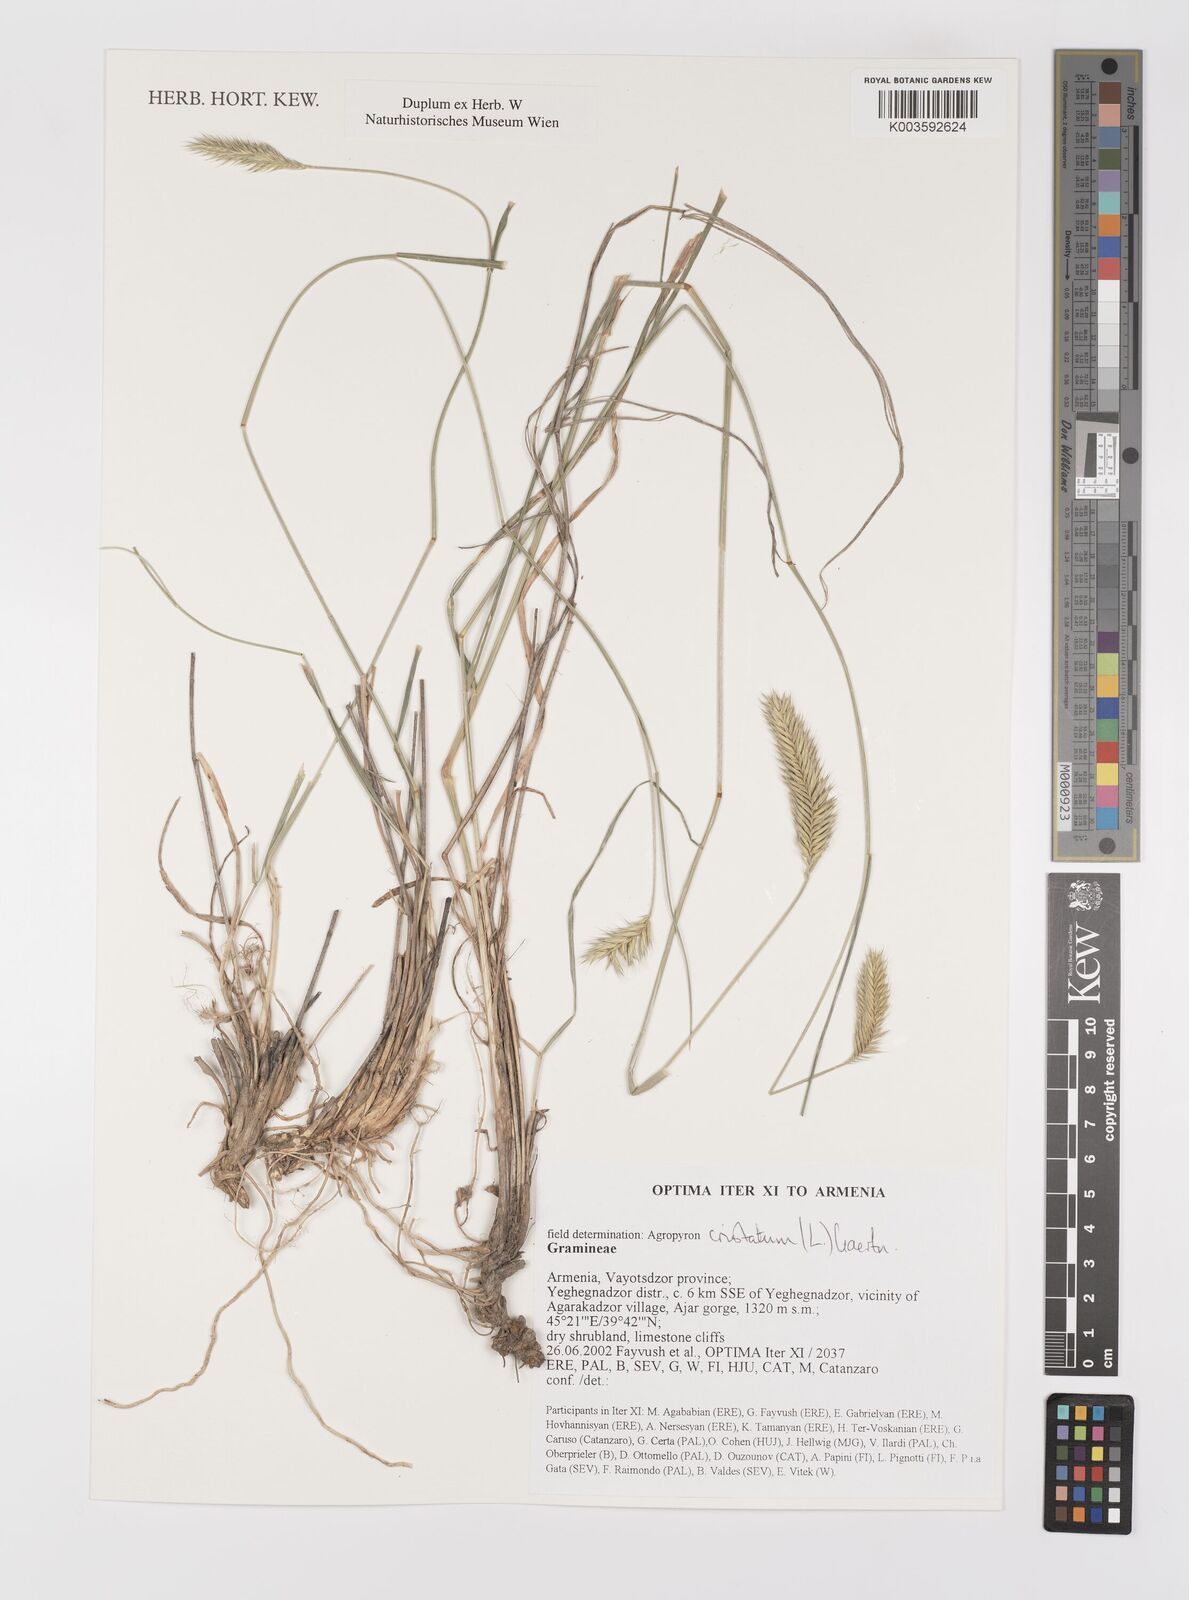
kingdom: Plantae
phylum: Tracheophyta
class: Liliopsida
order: Poales
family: Poaceae
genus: Agropyron
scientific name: Agropyron cristatum
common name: Crested wheatgrass
